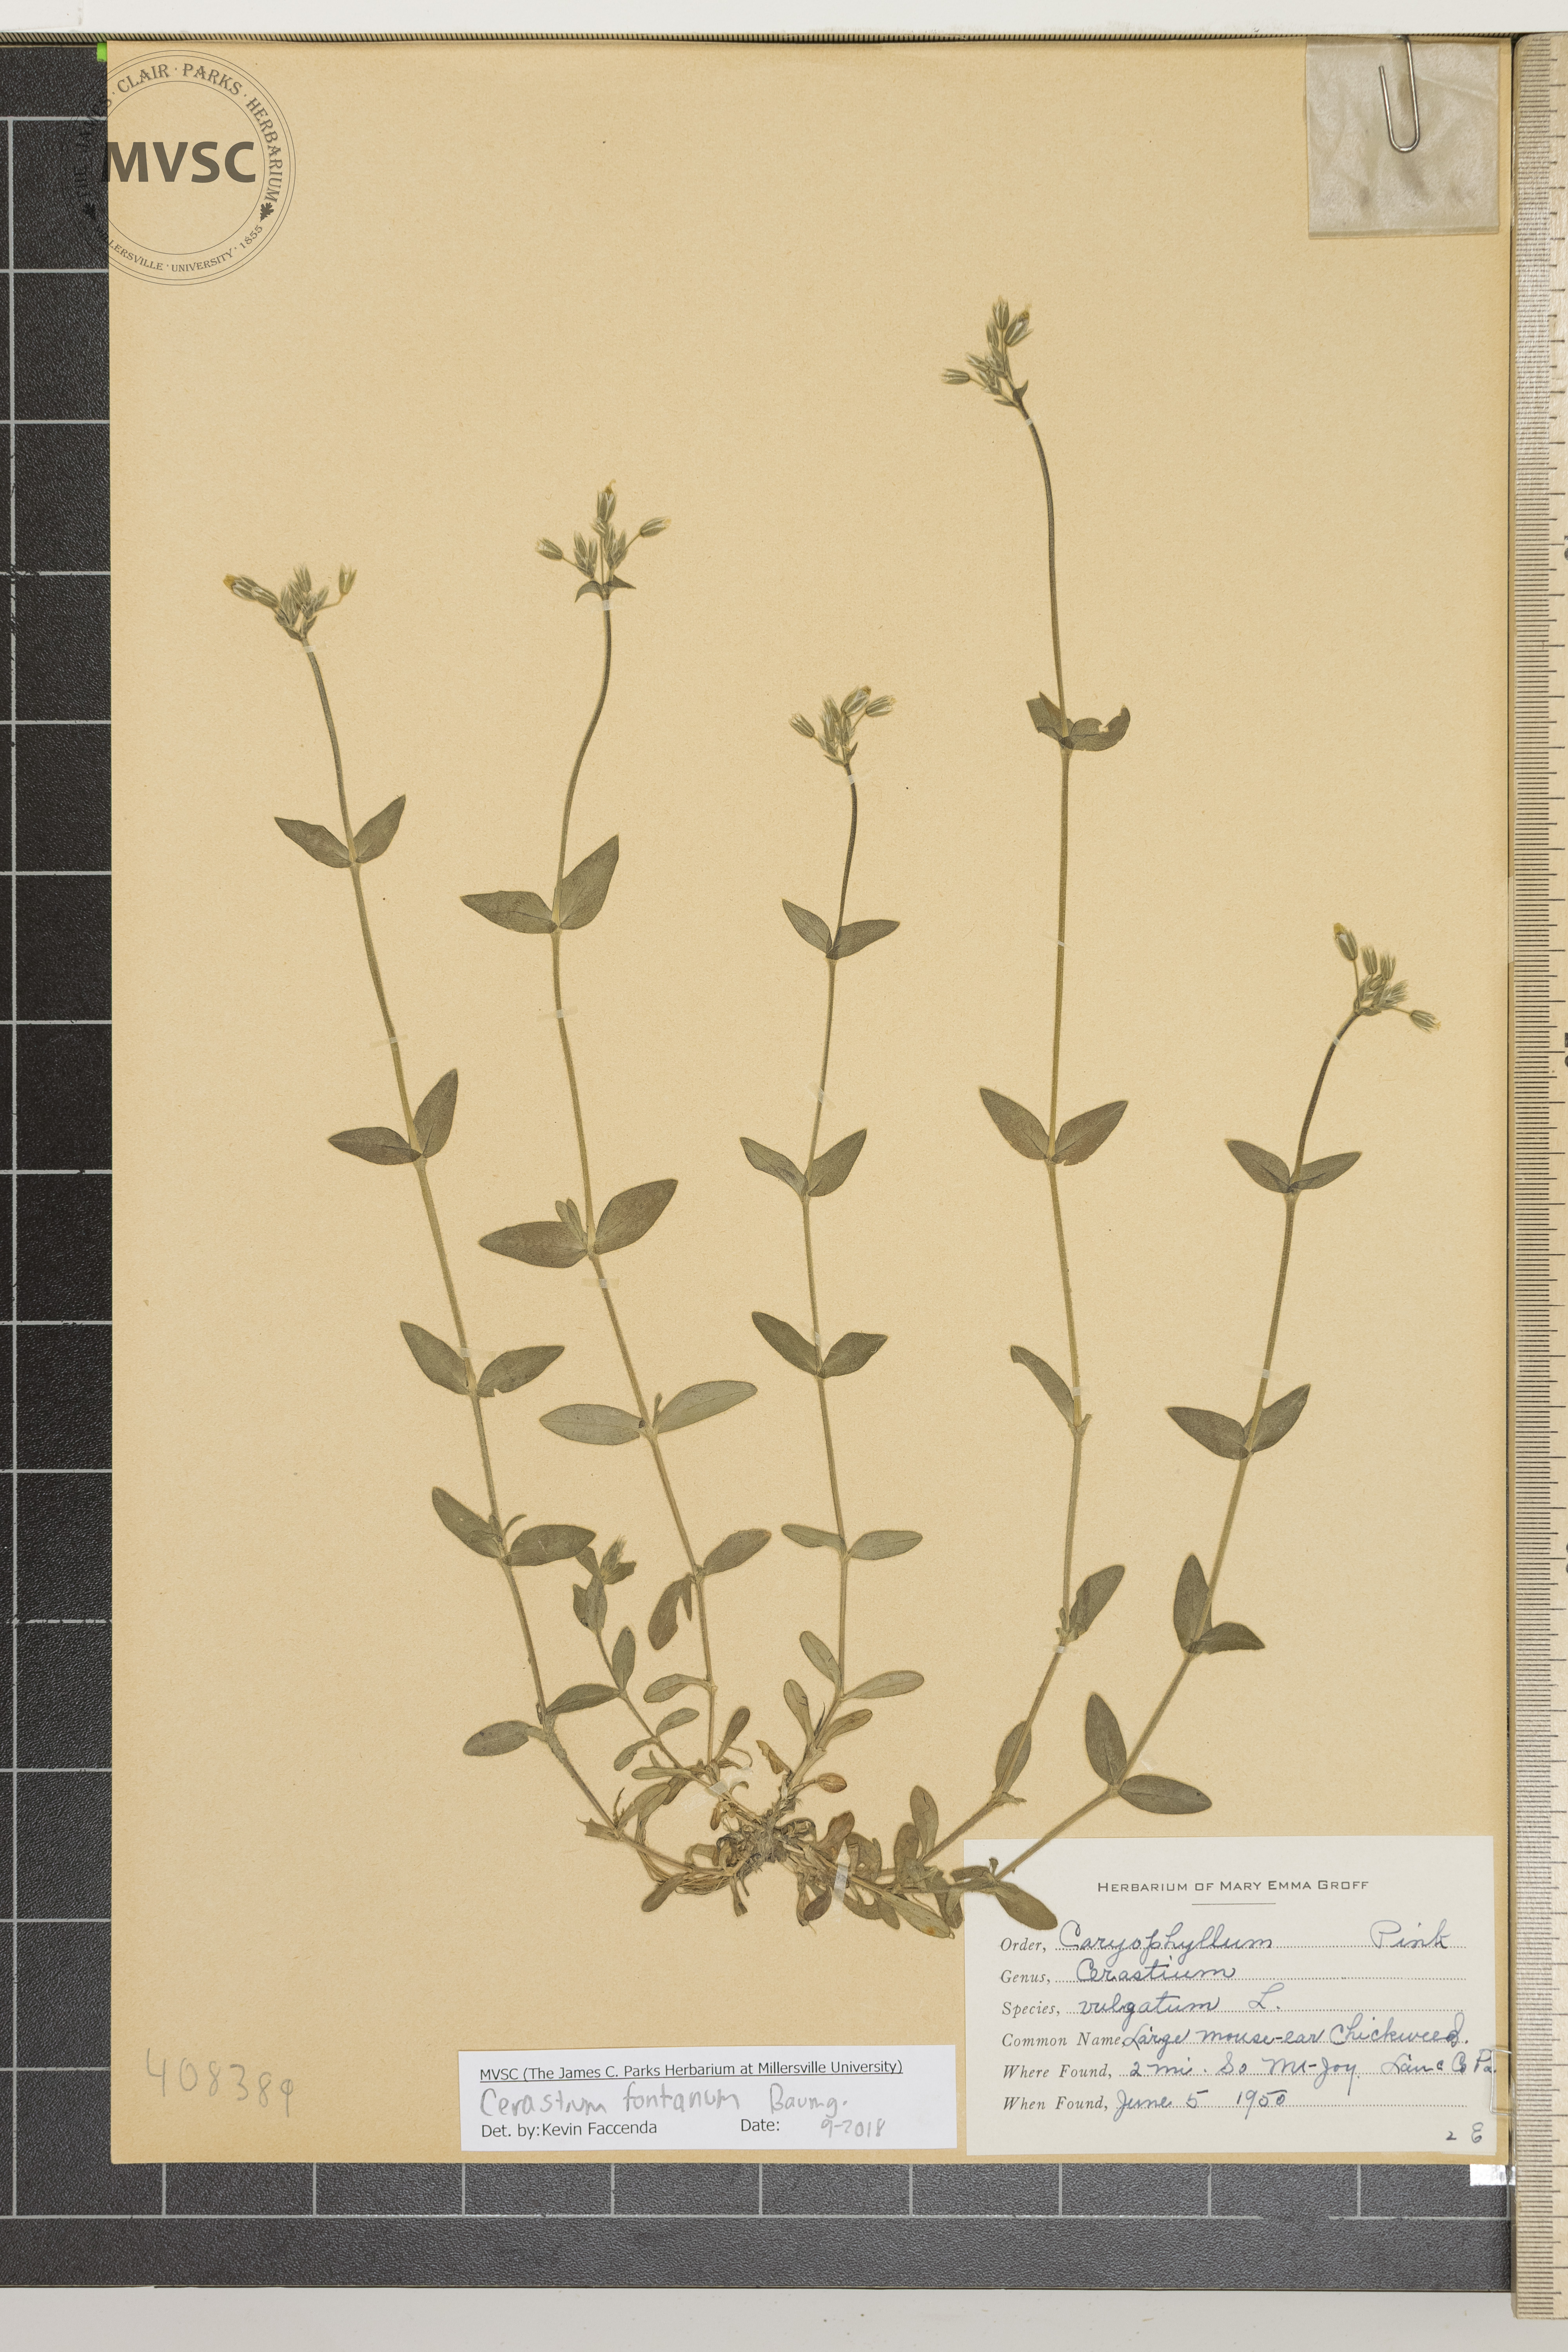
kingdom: Plantae
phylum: Tracheophyta
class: Magnoliopsida
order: Caryophyllales
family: Caryophyllaceae
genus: Cerastium
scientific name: Cerastium fontanum
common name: Large Mouse-ear Chickweed
